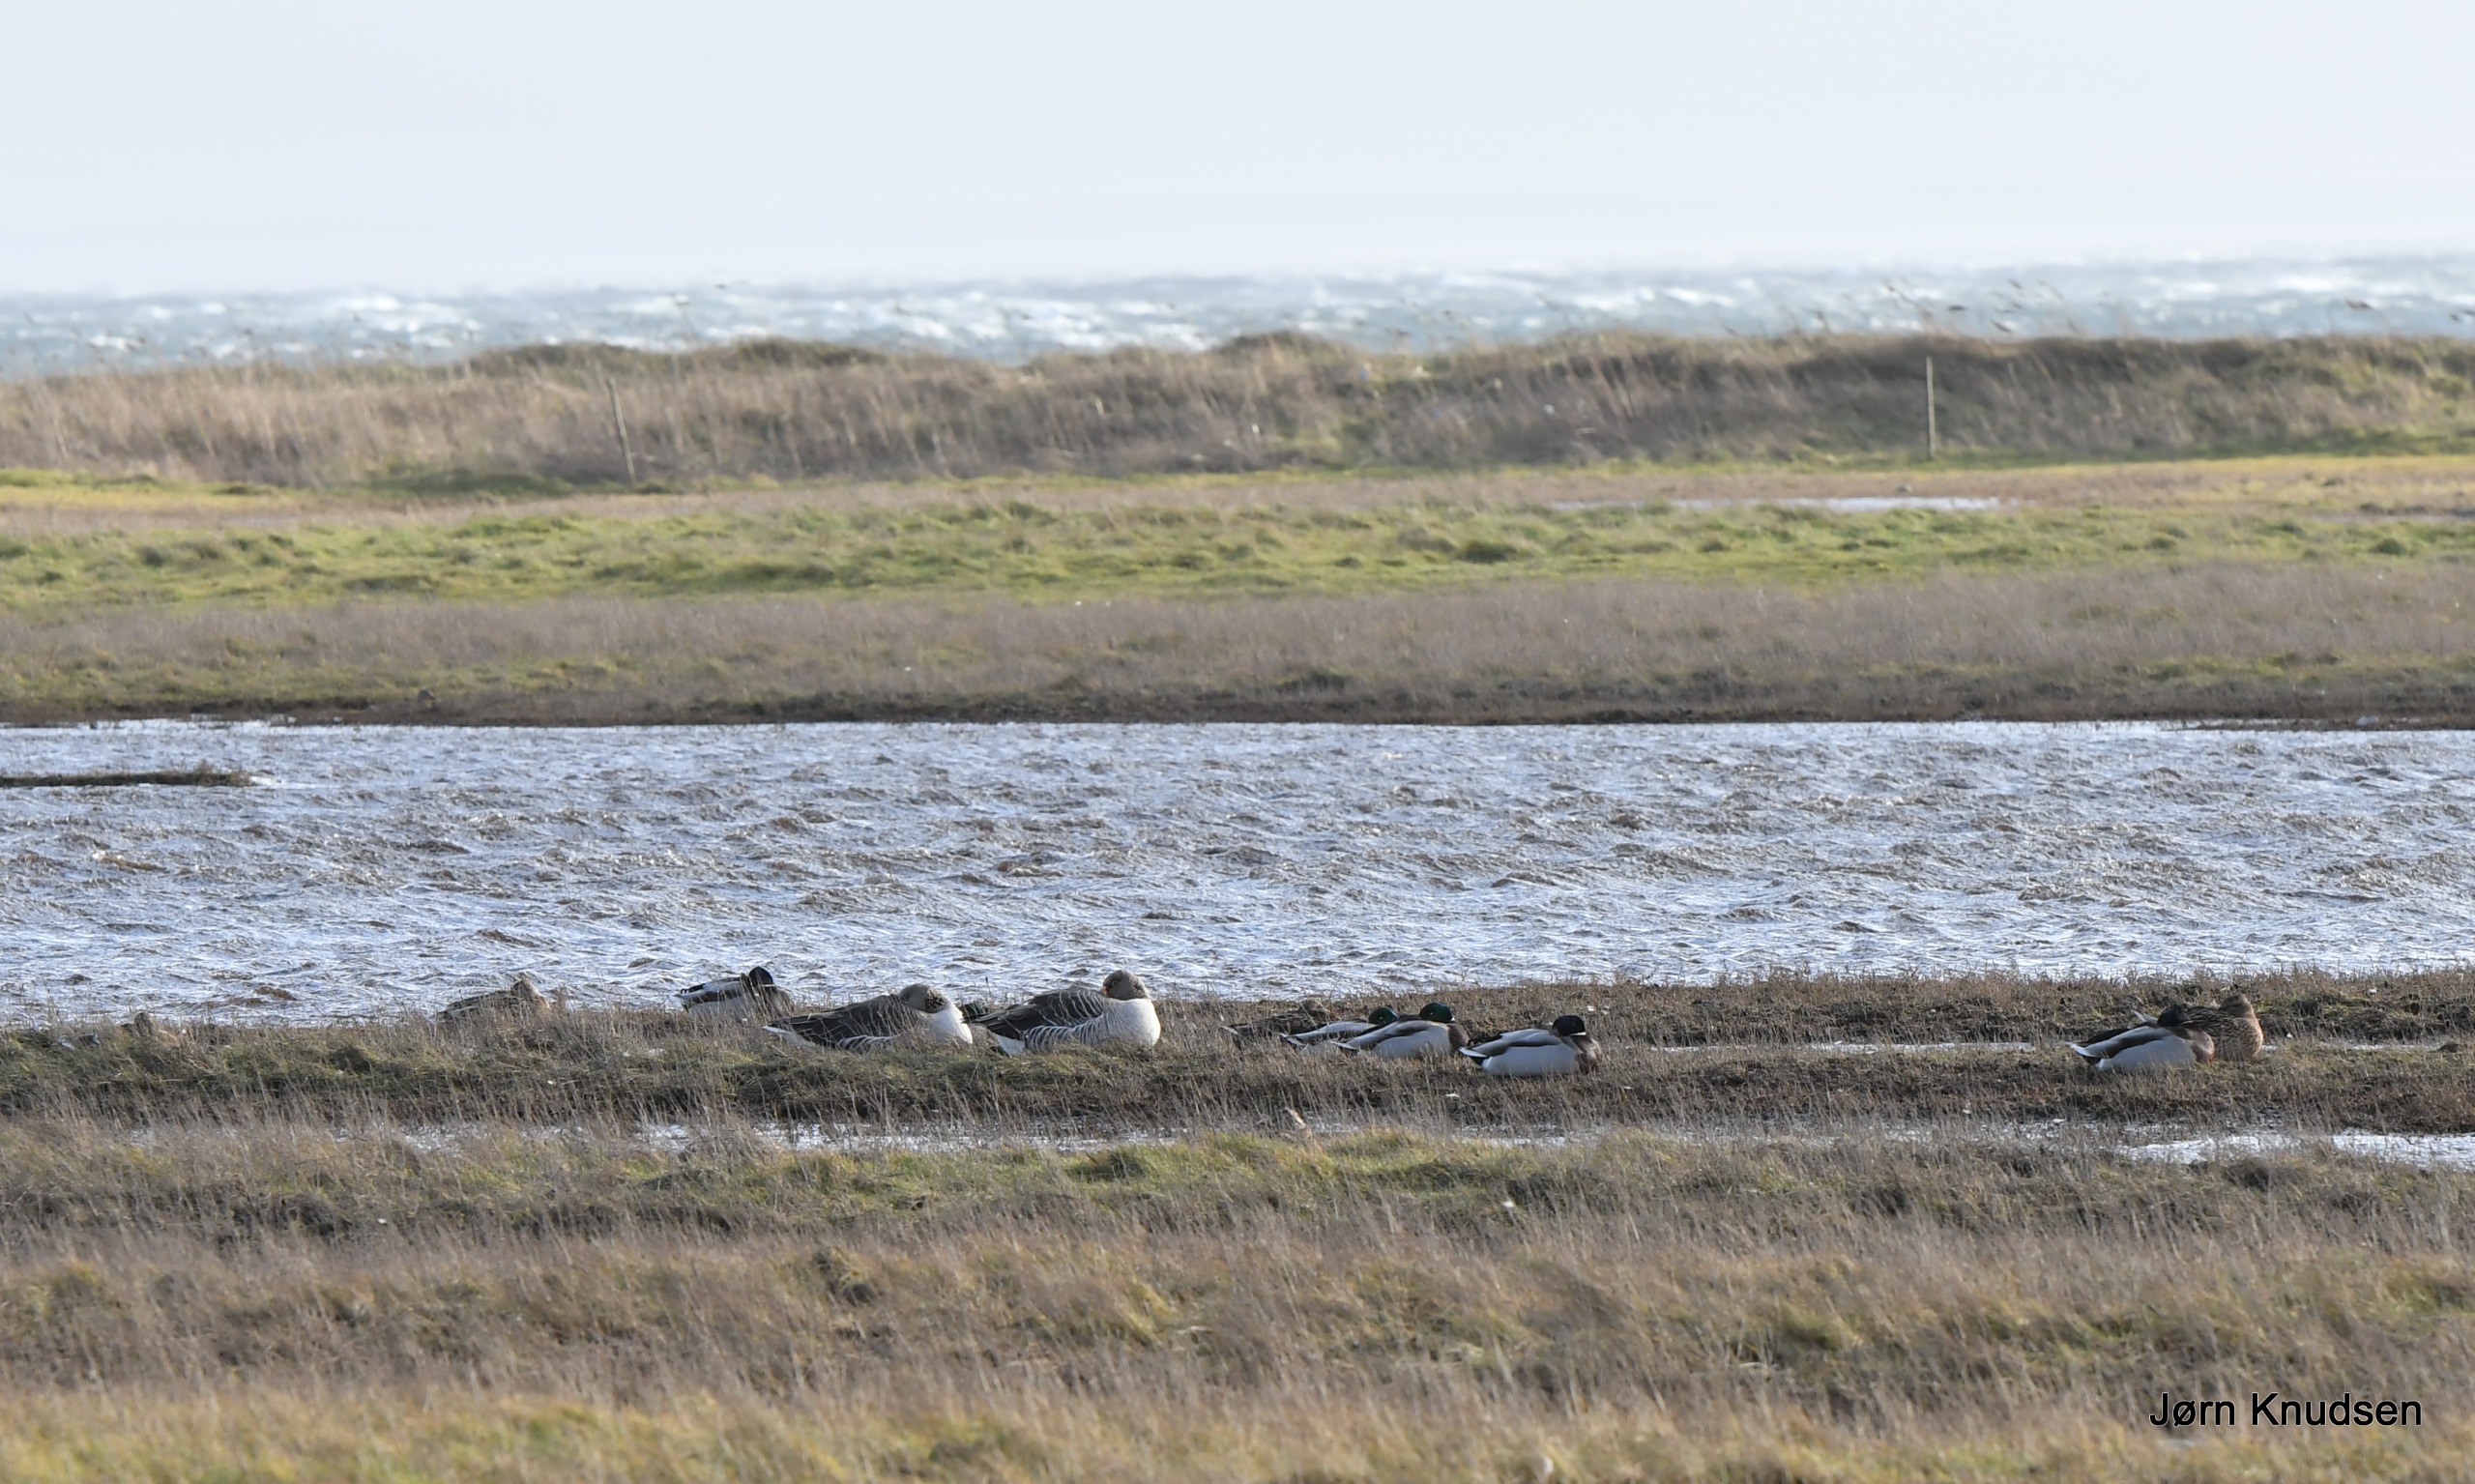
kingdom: Animalia
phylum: Chordata
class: Aves
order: Anseriformes
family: Anatidae
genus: Anas
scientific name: Anas platyrhynchos
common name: Gråand
